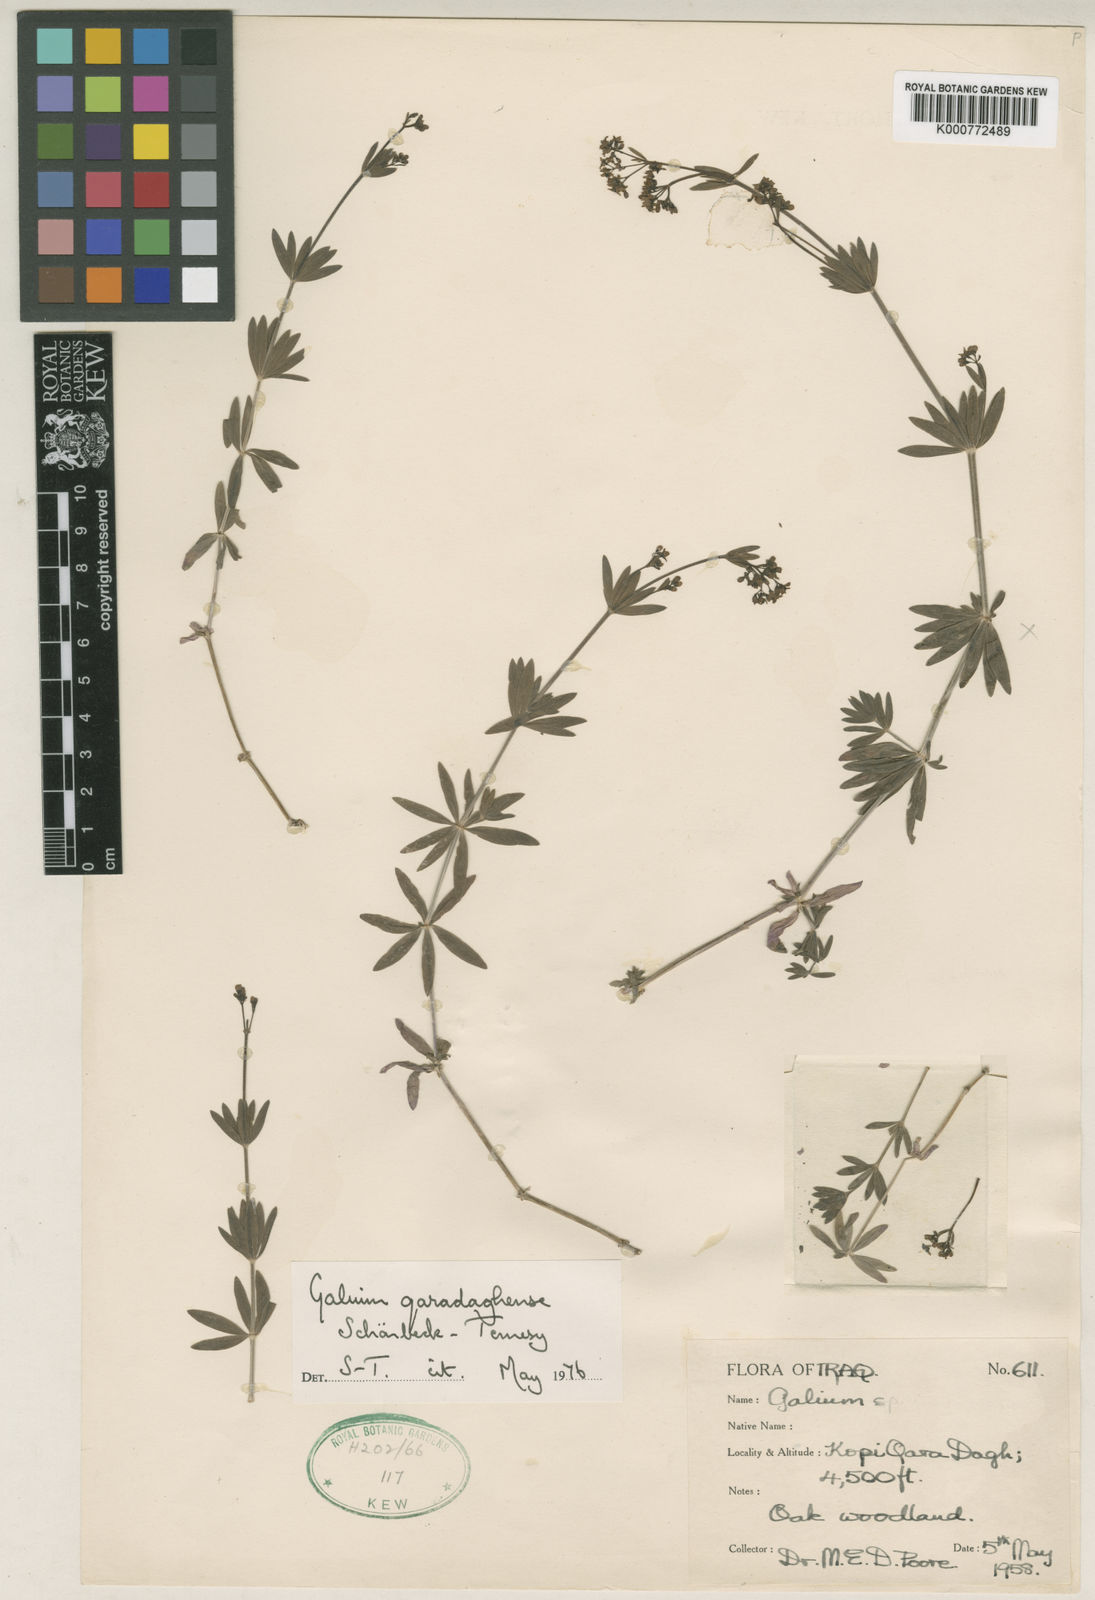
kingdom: Plantae
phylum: Tracheophyta
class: Magnoliopsida
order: Gentianales
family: Rubiaceae
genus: Galium
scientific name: Galium
